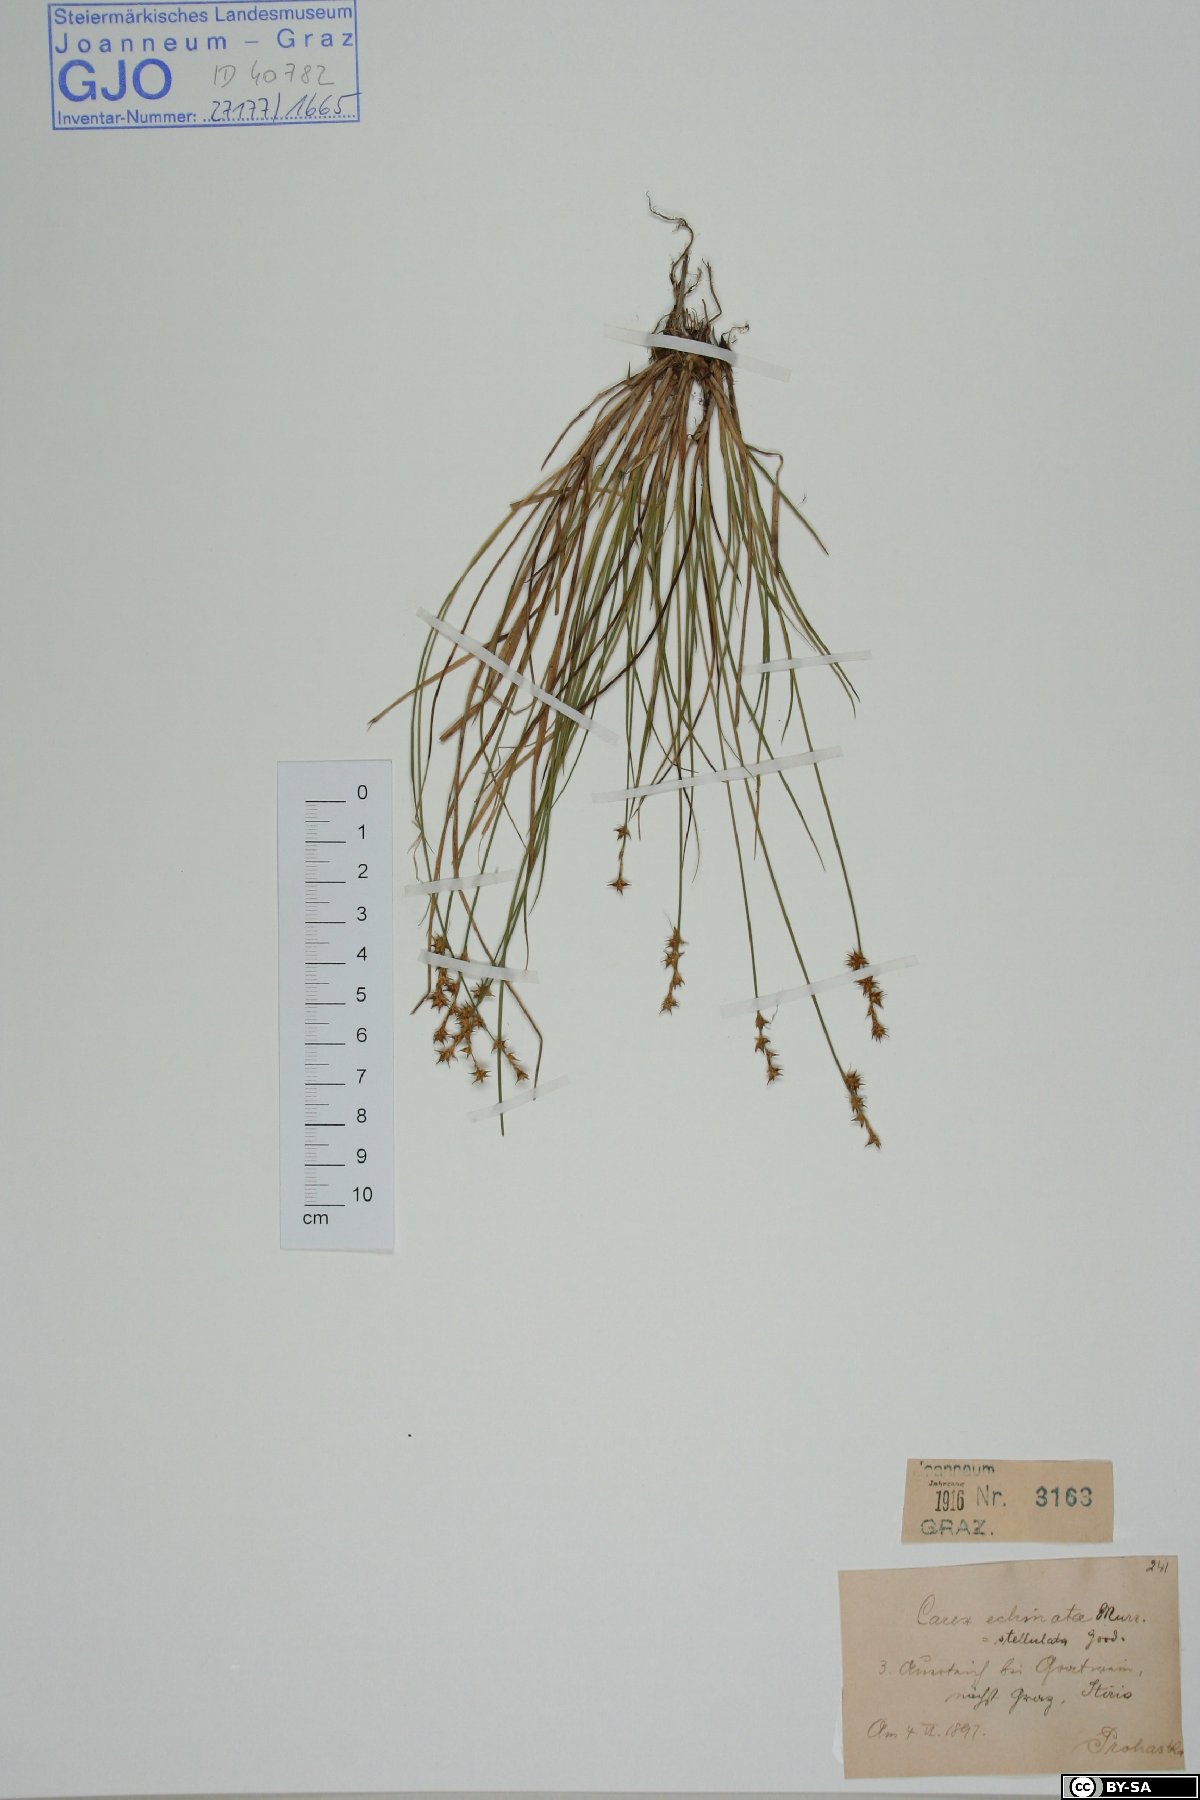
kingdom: Plantae
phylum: Tracheophyta
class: Liliopsida
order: Poales
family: Cyperaceae
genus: Carex
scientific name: Carex echinata
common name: Star sedge
